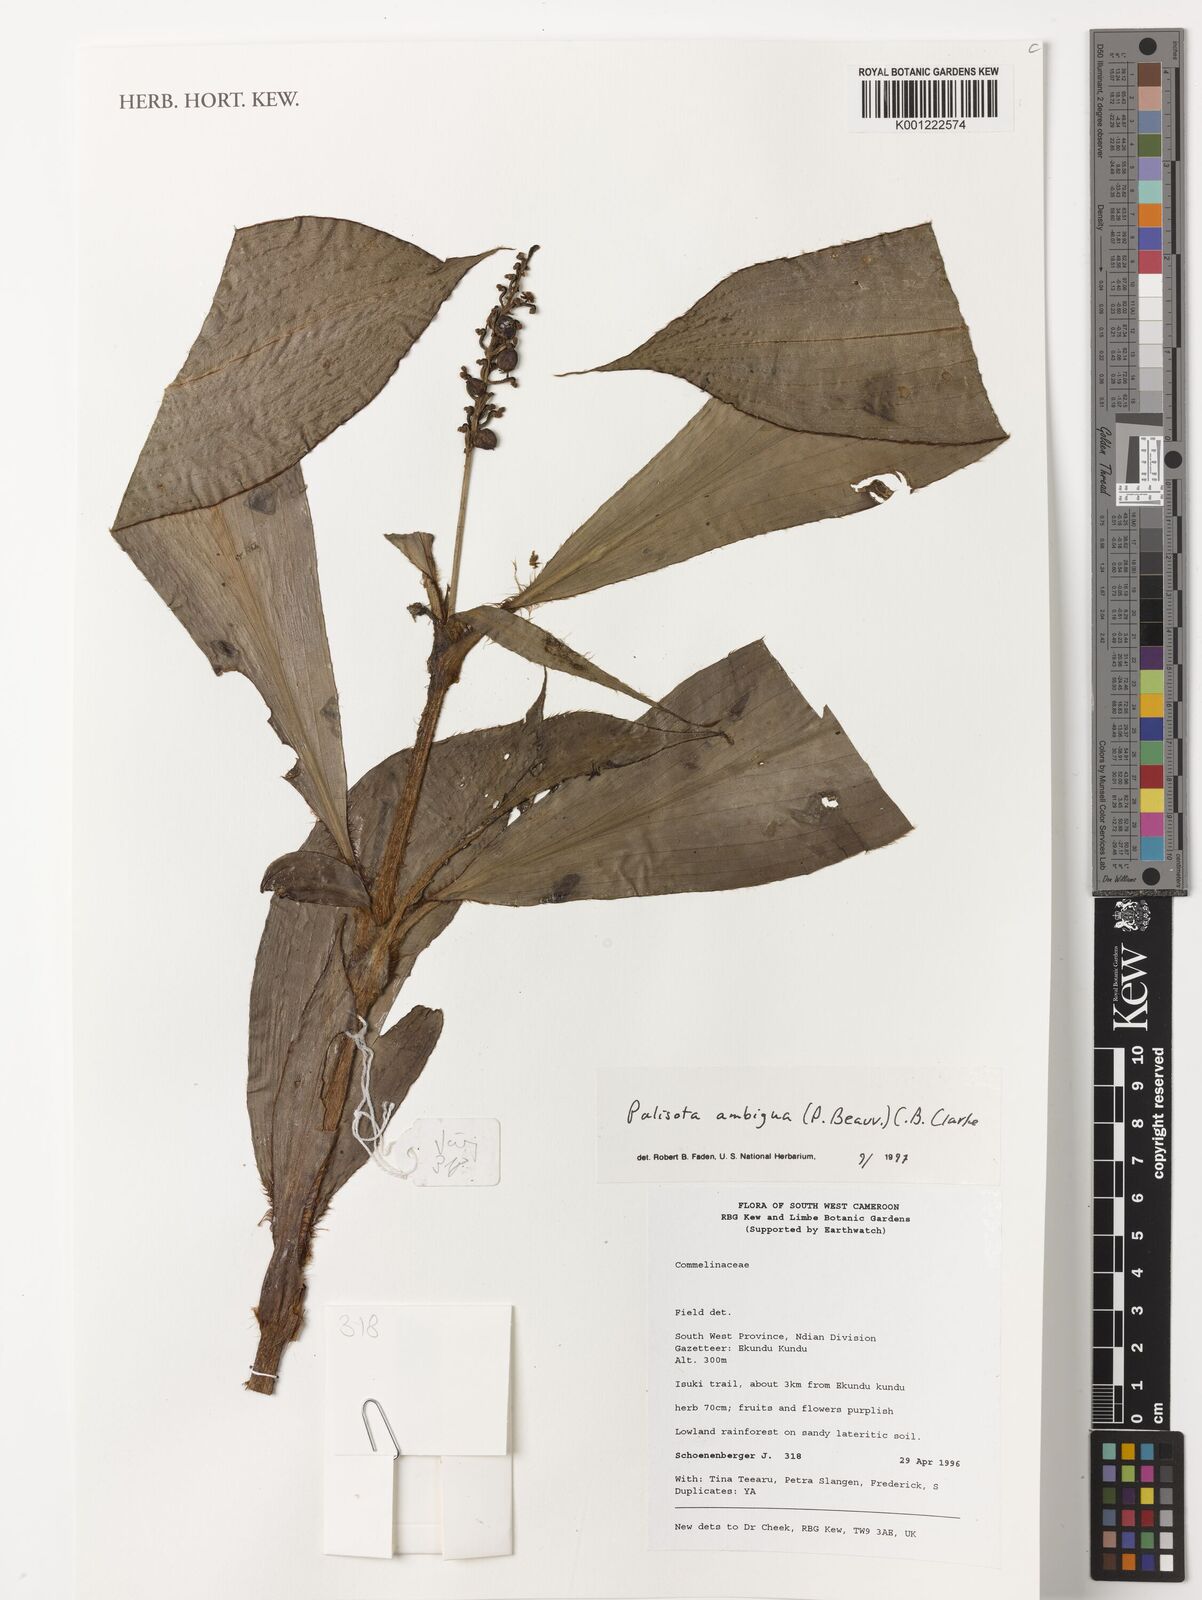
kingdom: Plantae
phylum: Tracheophyta
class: Liliopsida
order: Commelinales
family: Commelinaceae
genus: Palisota
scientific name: Palisota ambigua
